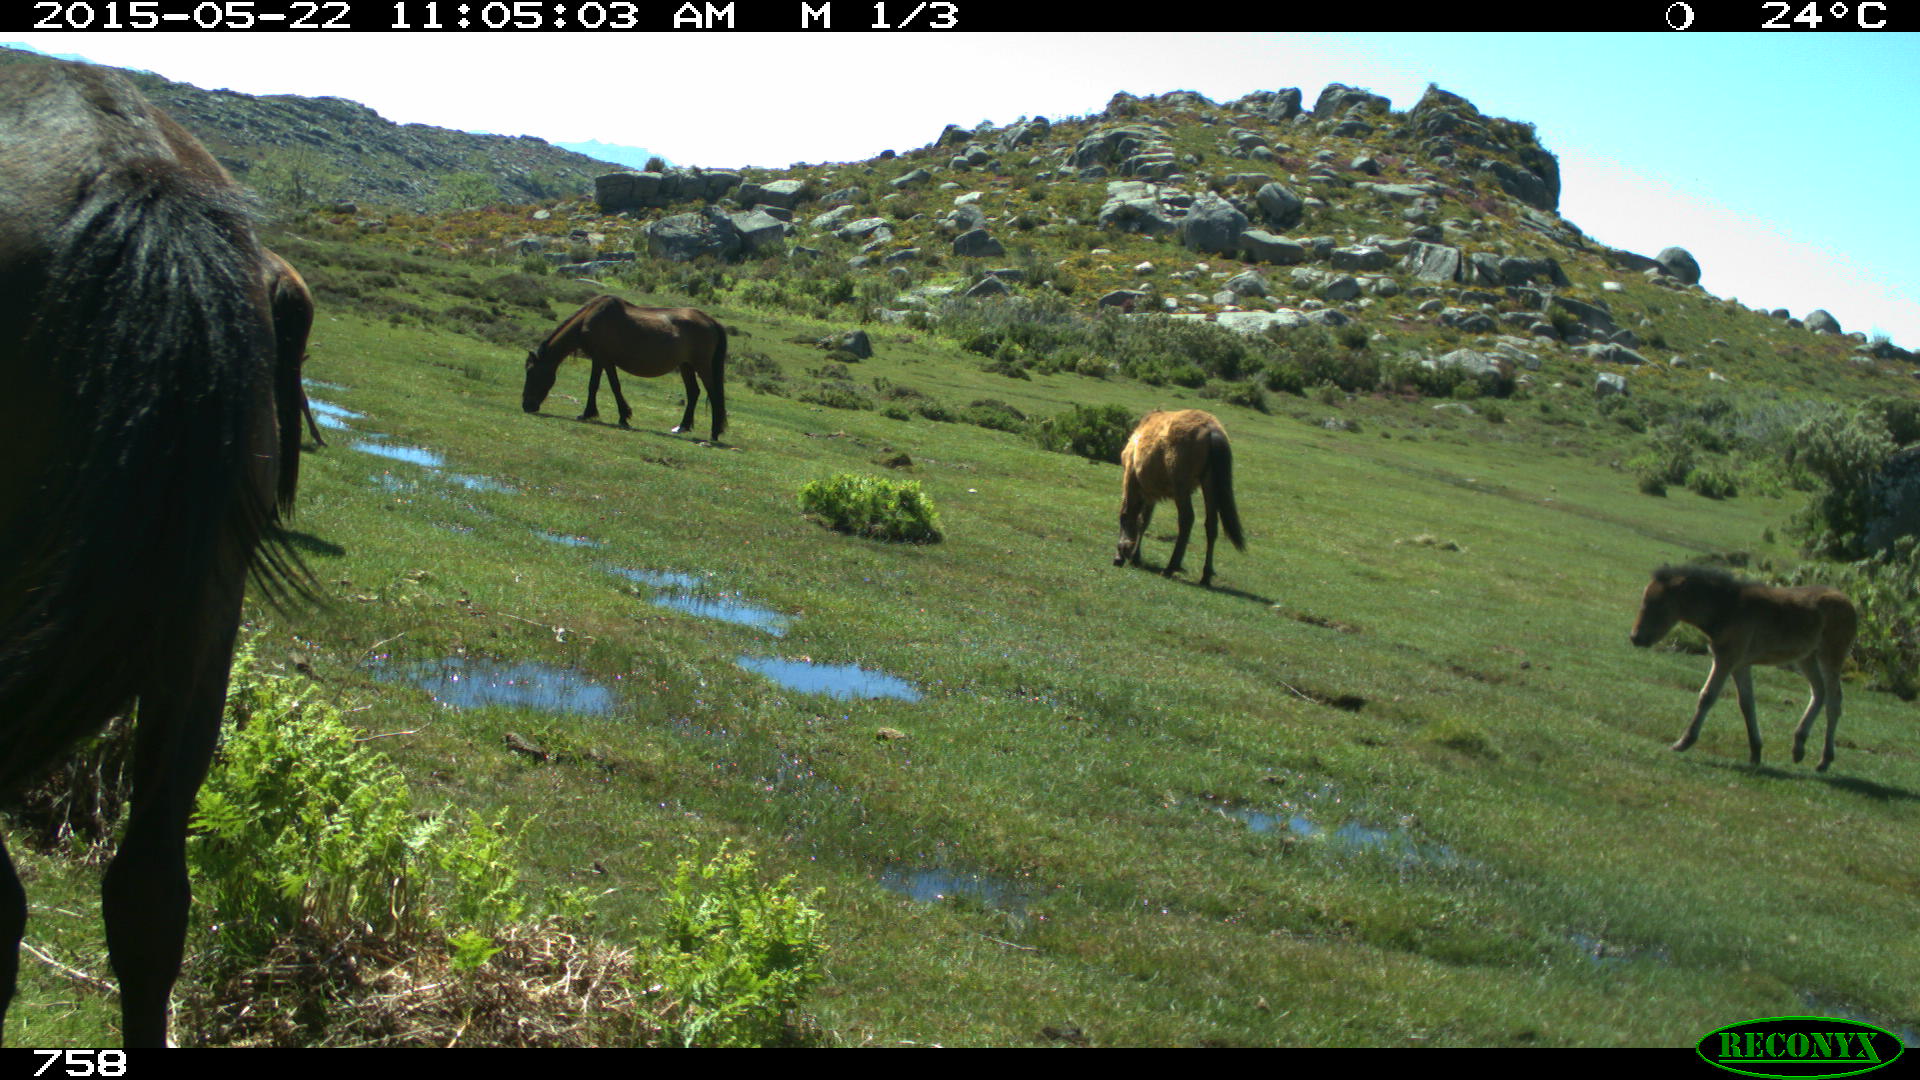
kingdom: Animalia
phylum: Chordata
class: Mammalia
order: Perissodactyla
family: Equidae
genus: Equus
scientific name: Equus caballus
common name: Horse
